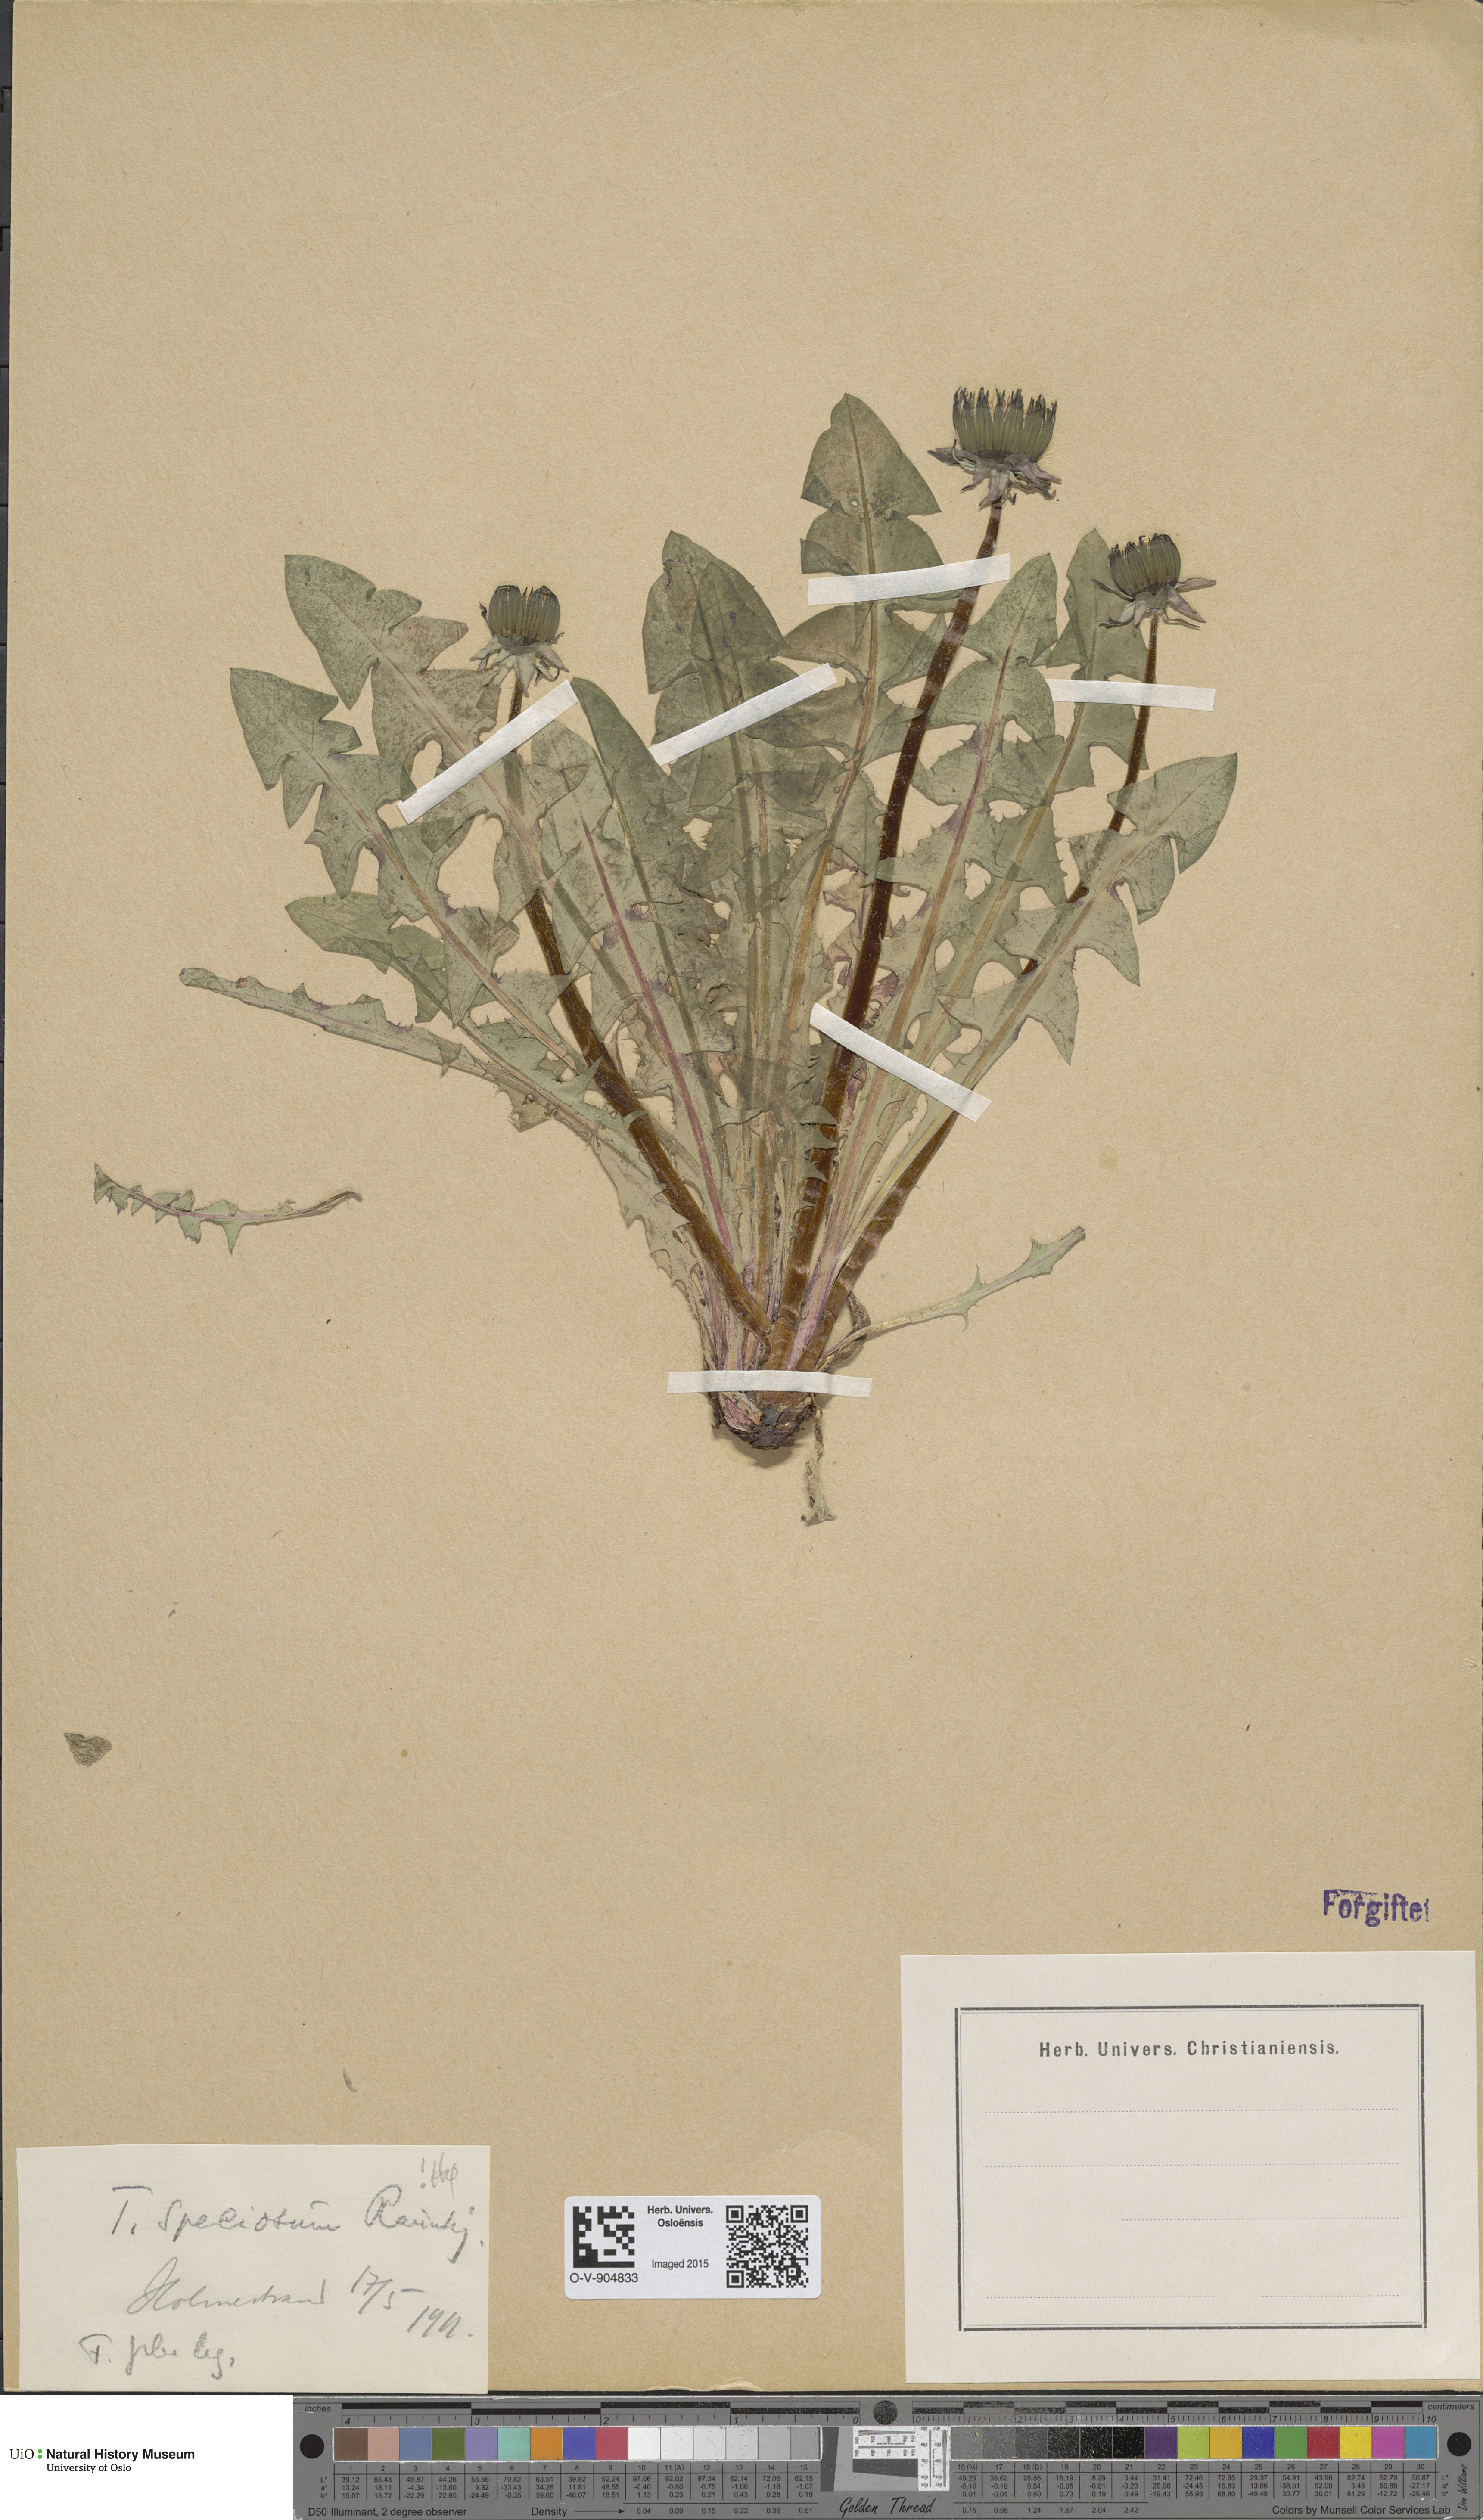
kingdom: Plantae
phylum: Tracheophyta
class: Magnoliopsida
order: Asterales
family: Asteraceae
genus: Taraxacum
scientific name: Taraxacum speciosum
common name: Massive dandelion
